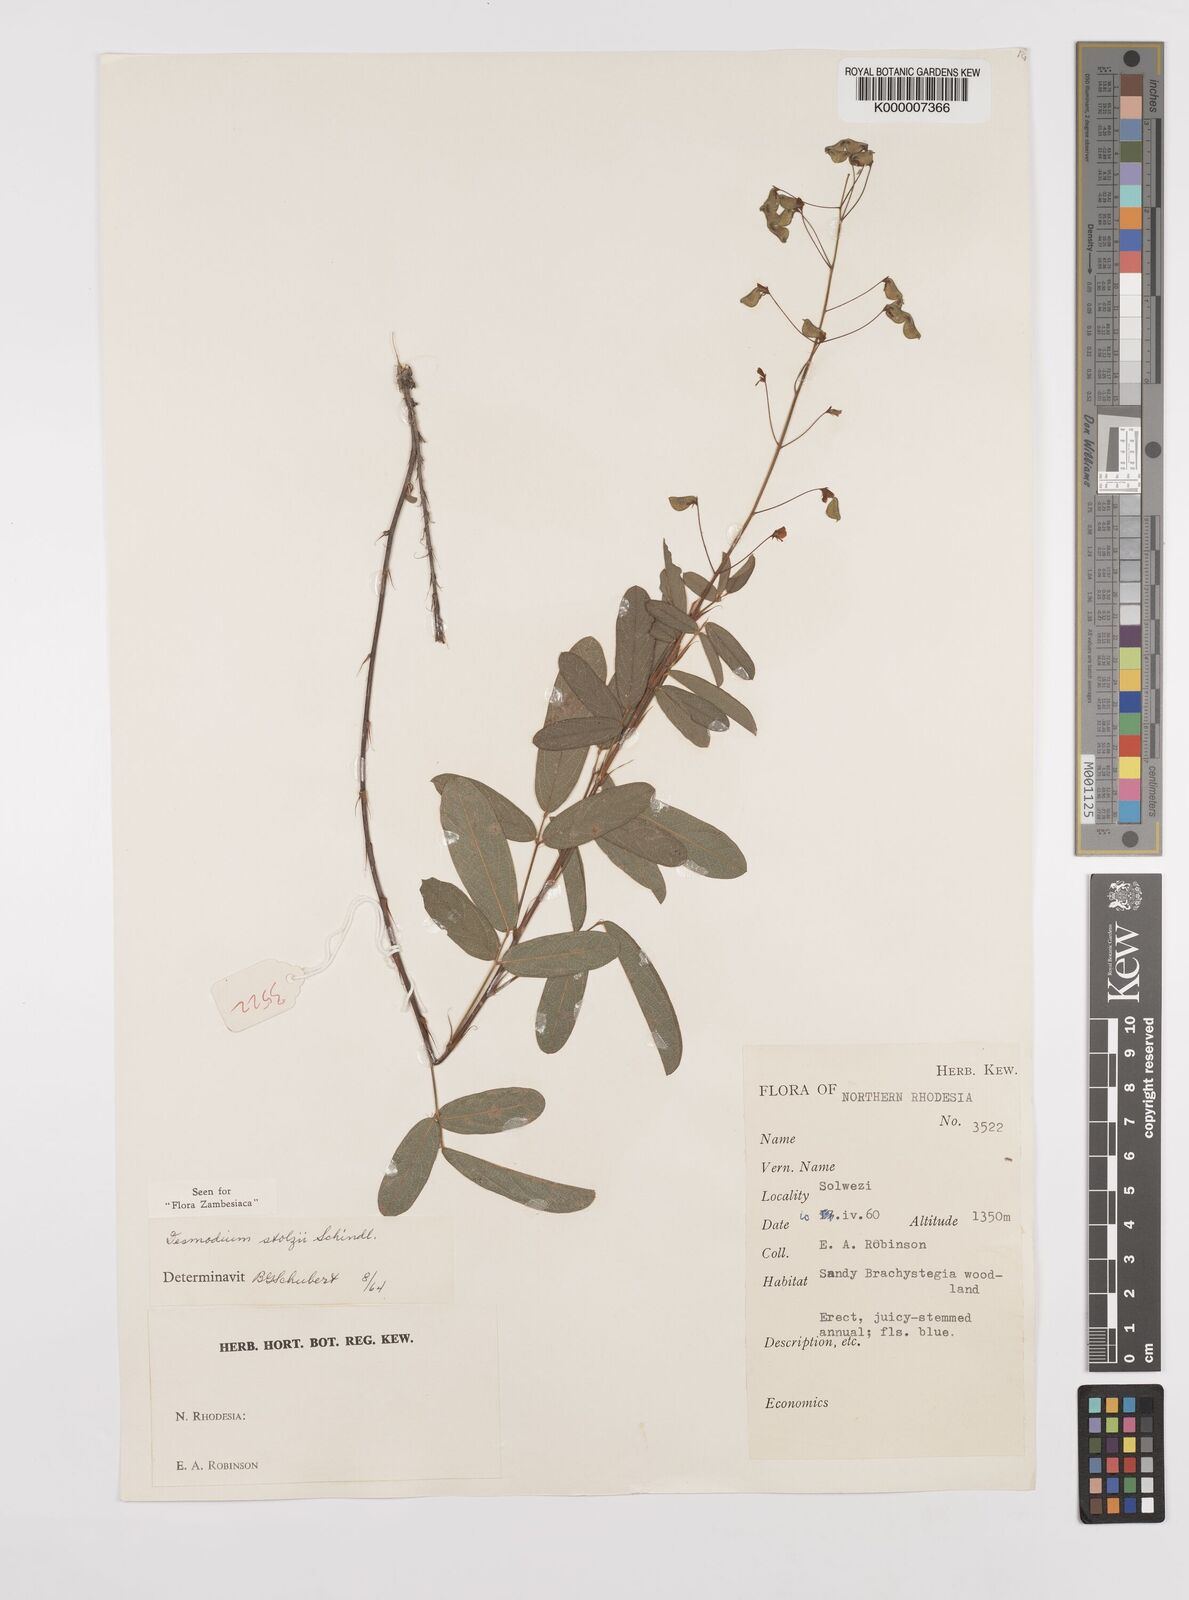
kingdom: Plantae
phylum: Tracheophyta
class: Magnoliopsida
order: Fabales
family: Fabaceae
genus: Grona
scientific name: Grona stolzii
